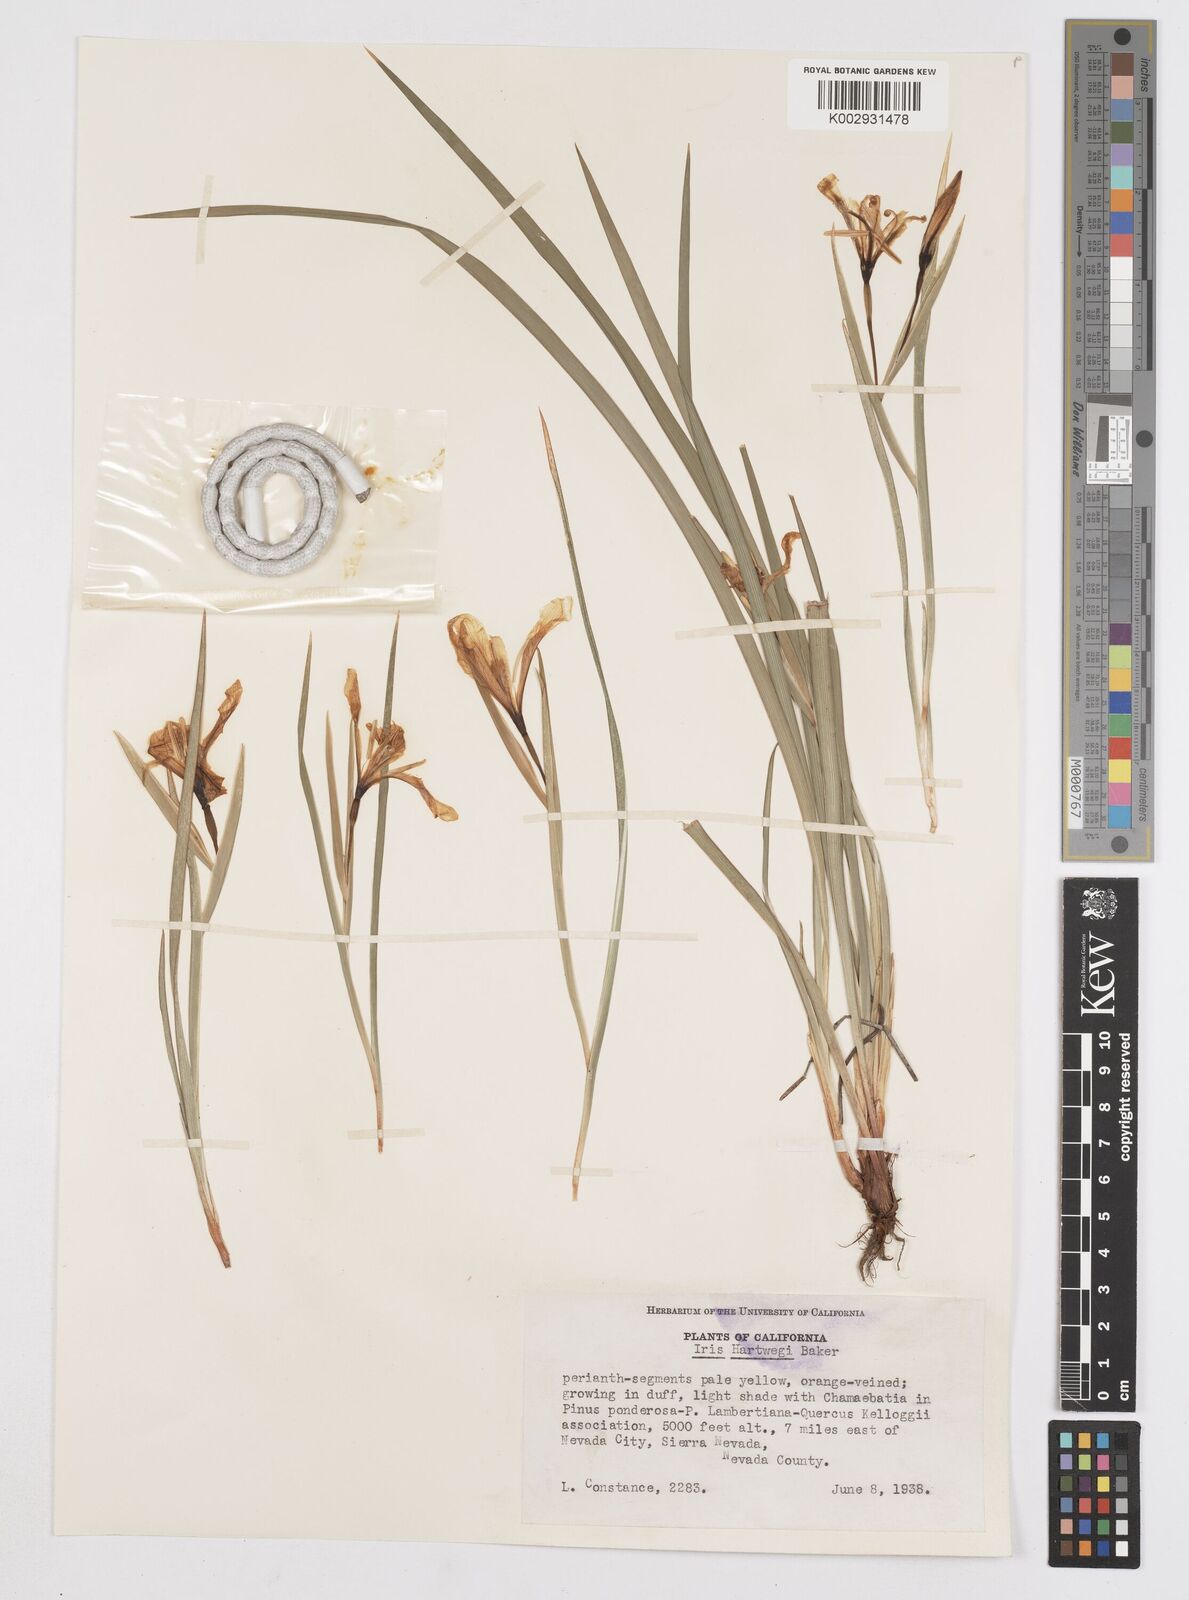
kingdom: Plantae
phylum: Tracheophyta
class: Liliopsida
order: Asparagales
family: Iridaceae
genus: Iris
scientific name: Iris hartwegii
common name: Sierra iris
